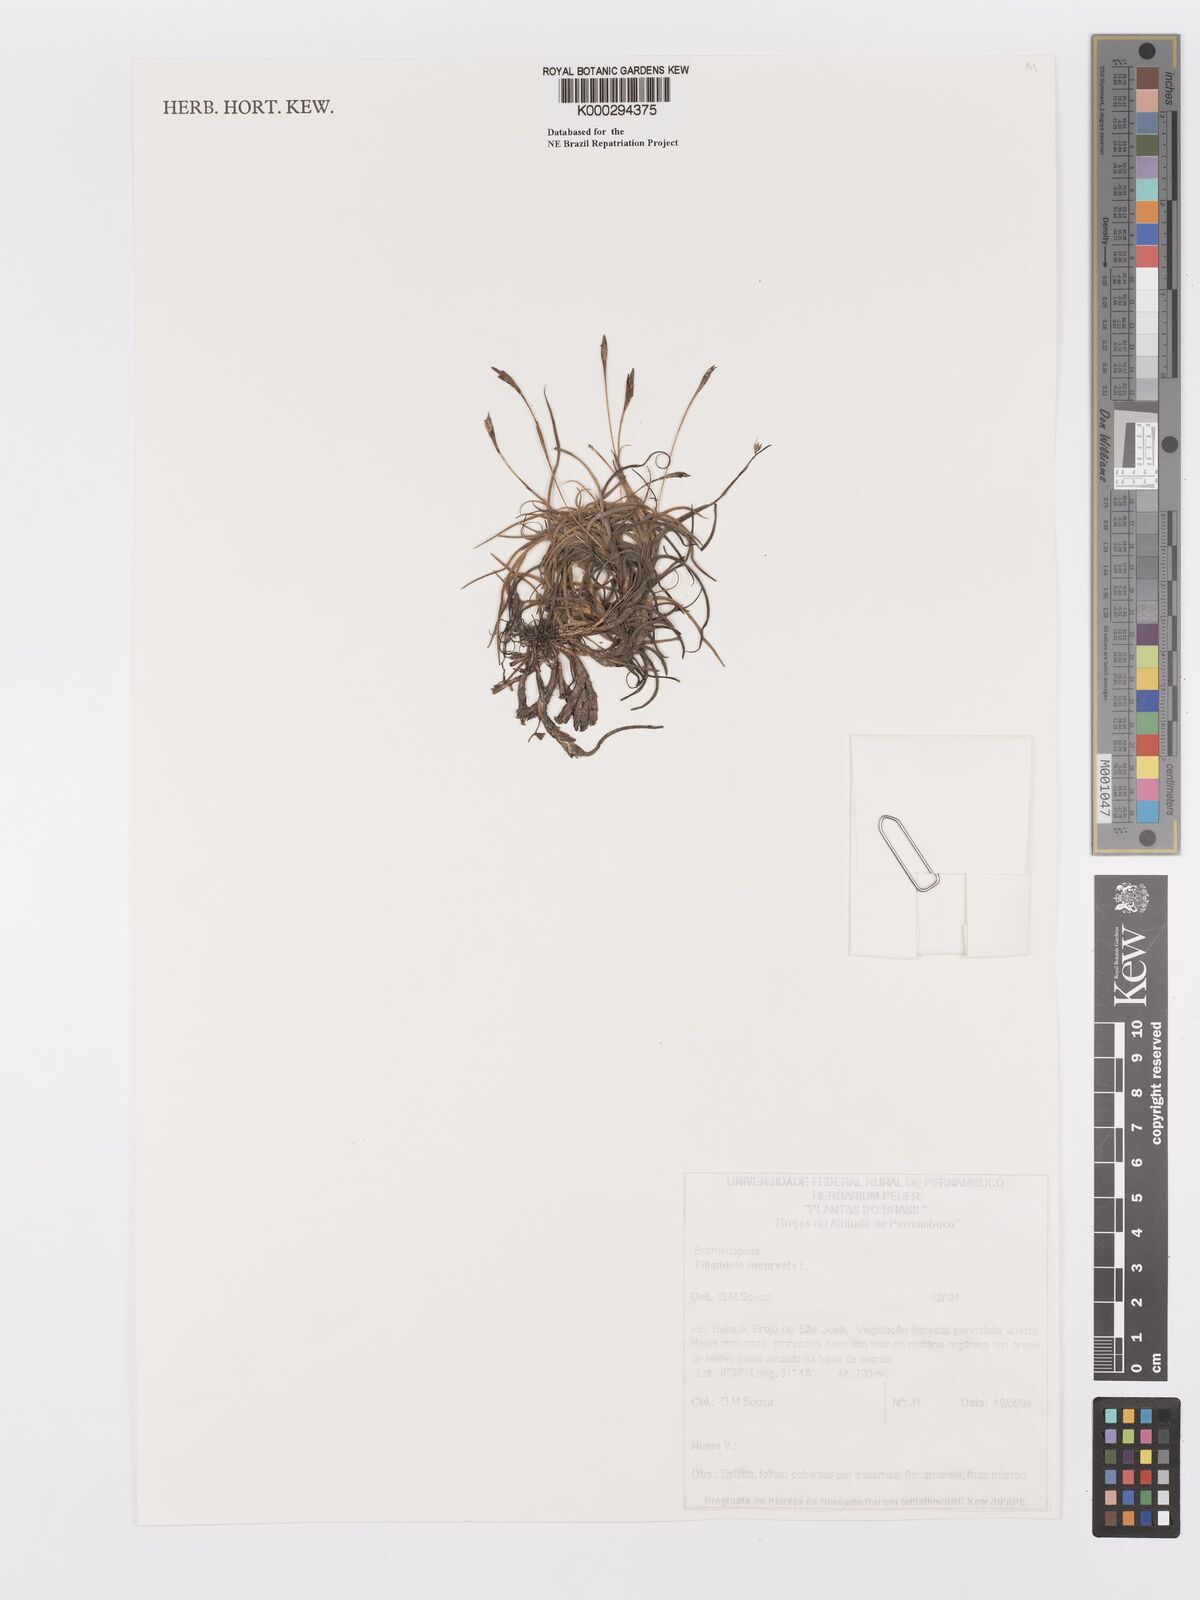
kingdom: Plantae
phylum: Tracheophyta
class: Liliopsida
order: Poales
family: Bromeliaceae
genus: Tillandsia
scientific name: Tillandsia recurvata
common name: Small ballmoss
